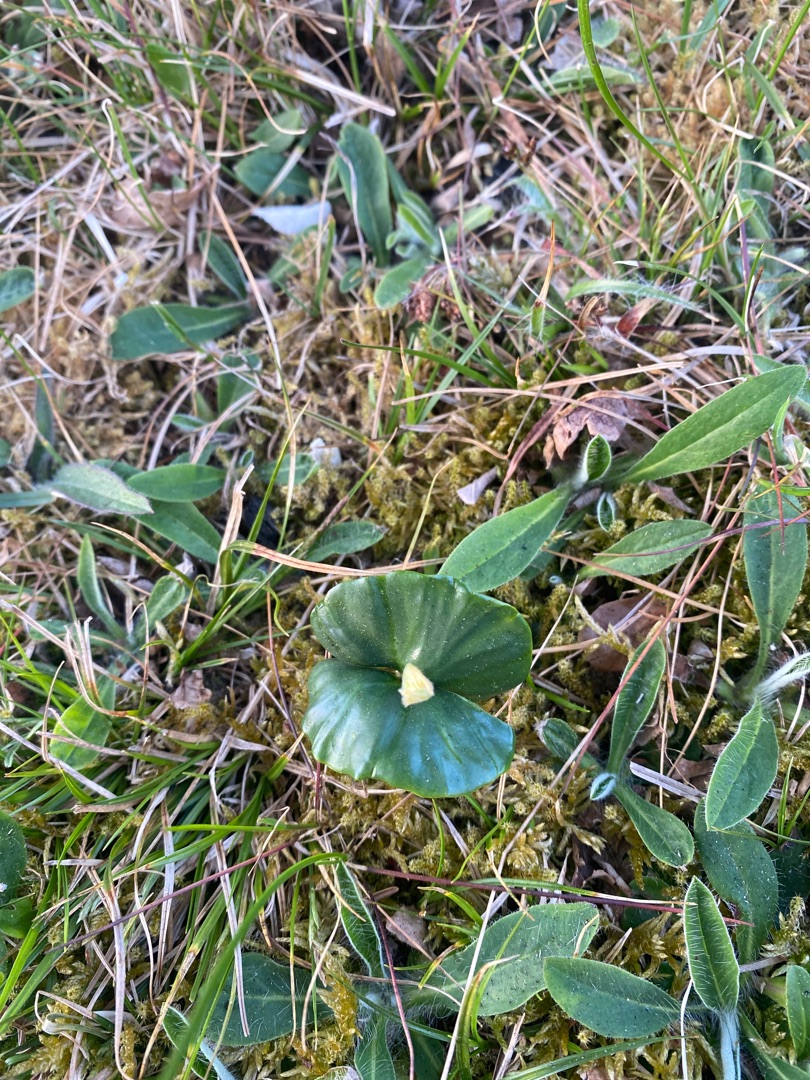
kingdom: Plantae
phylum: Tracheophyta
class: Magnoliopsida
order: Fagales
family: Fagaceae
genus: Fagus
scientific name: Fagus sylvatica
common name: Bøg
